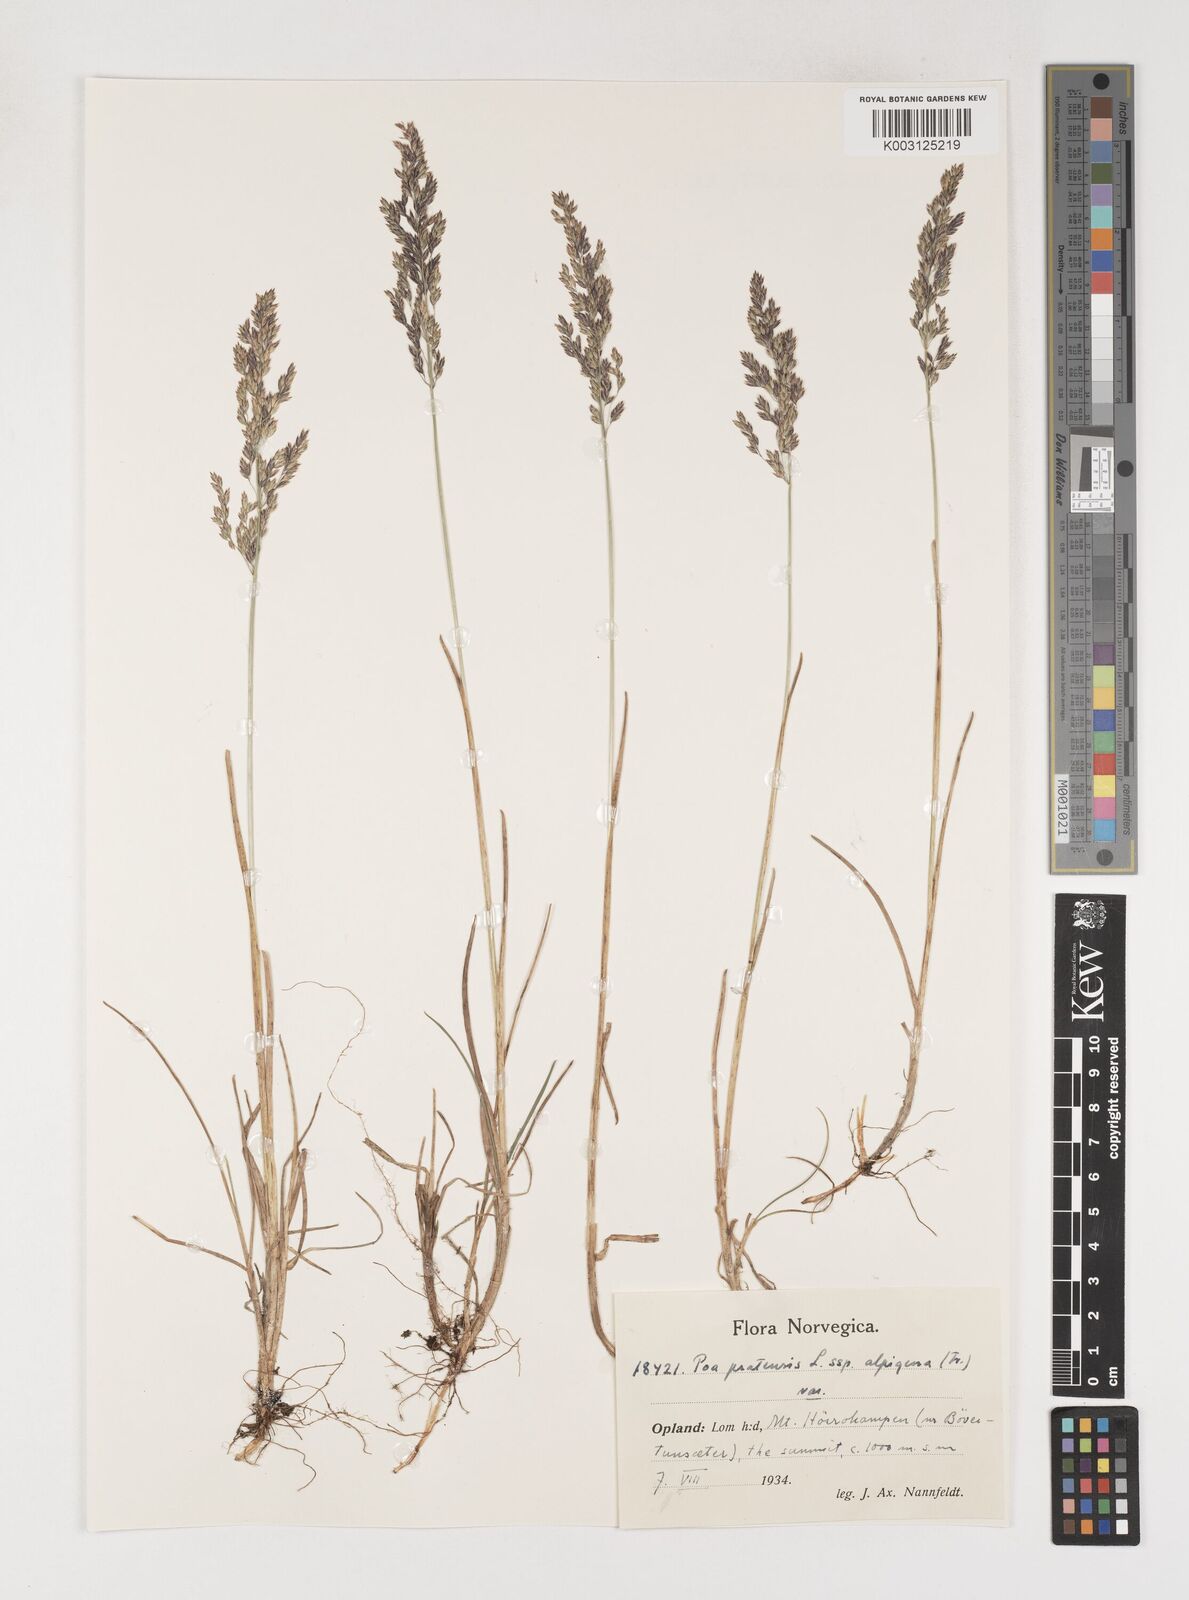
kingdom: Plantae
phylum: Tracheophyta
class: Liliopsida
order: Poales
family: Poaceae
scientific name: Poaceae
